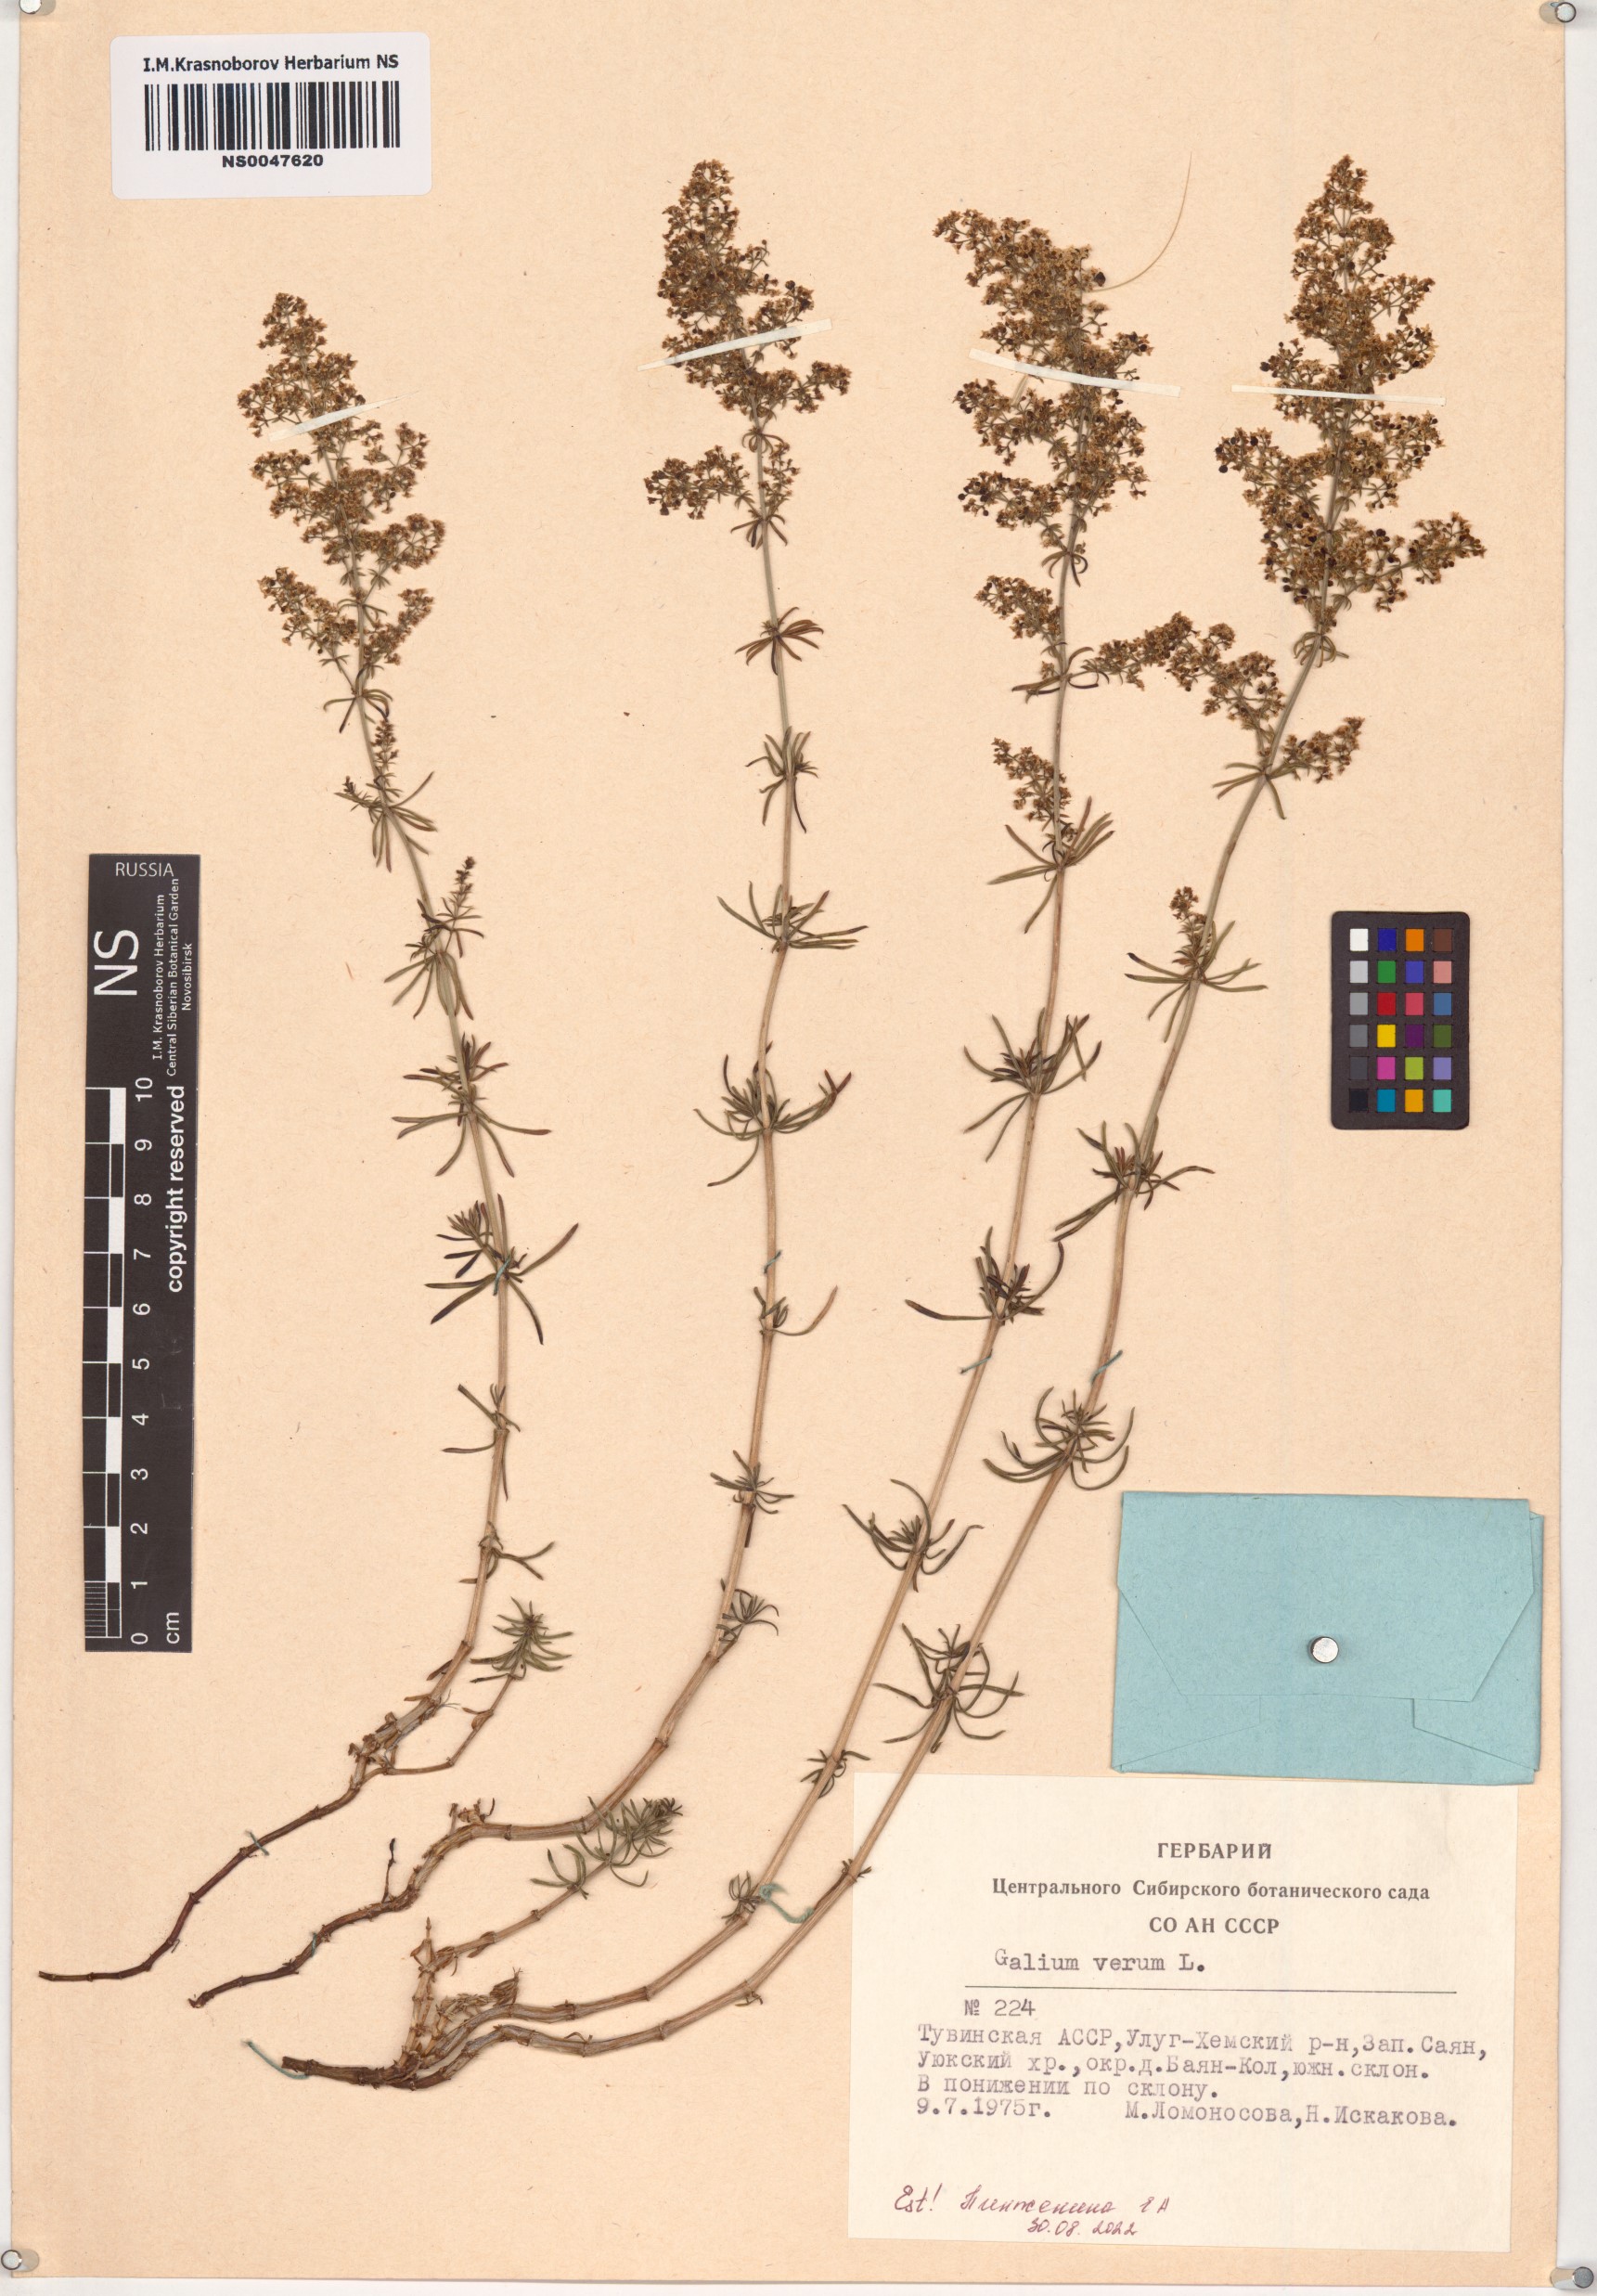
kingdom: Plantae
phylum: Tracheophyta
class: Magnoliopsida
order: Gentianales
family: Rubiaceae
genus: Galium
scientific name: Galium verum
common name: Lady's bedstraw
